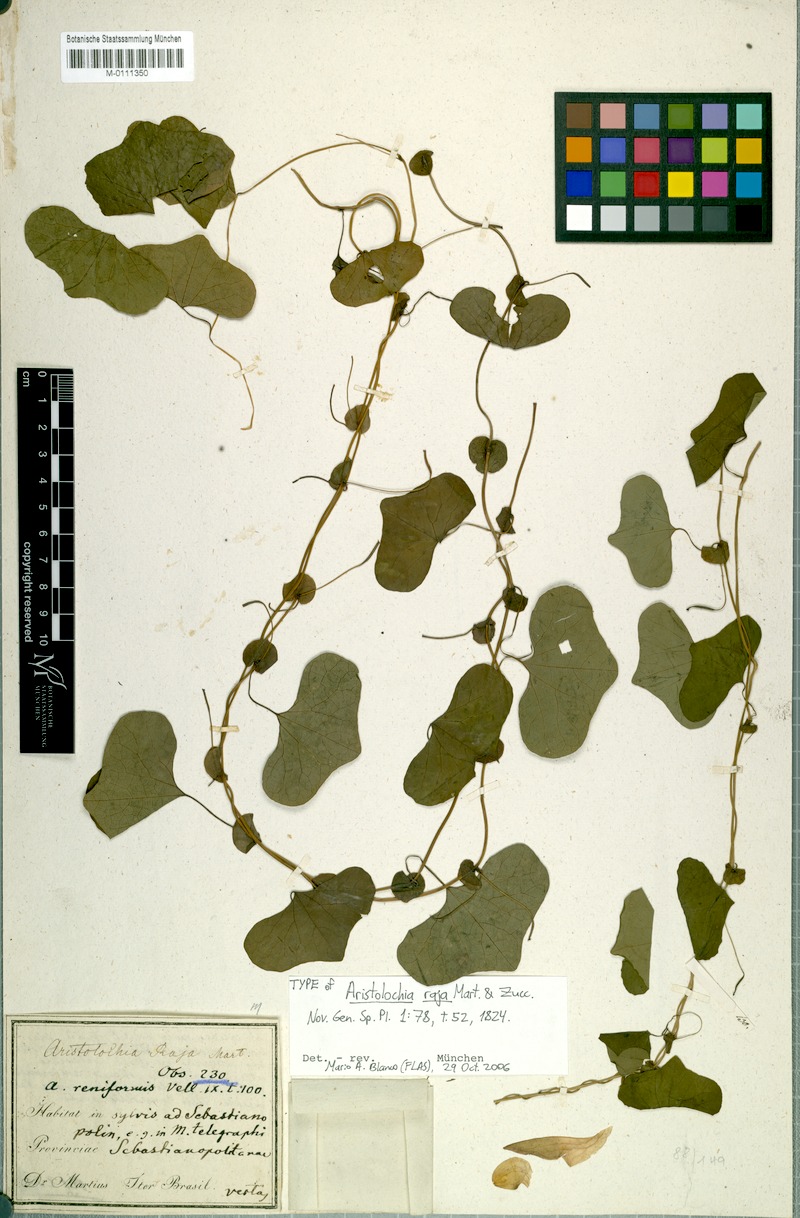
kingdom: Plantae
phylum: Tracheophyta
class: Magnoliopsida
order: Piperales
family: Aristolochiaceae
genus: Aristolochia
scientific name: Aristolochia raja
